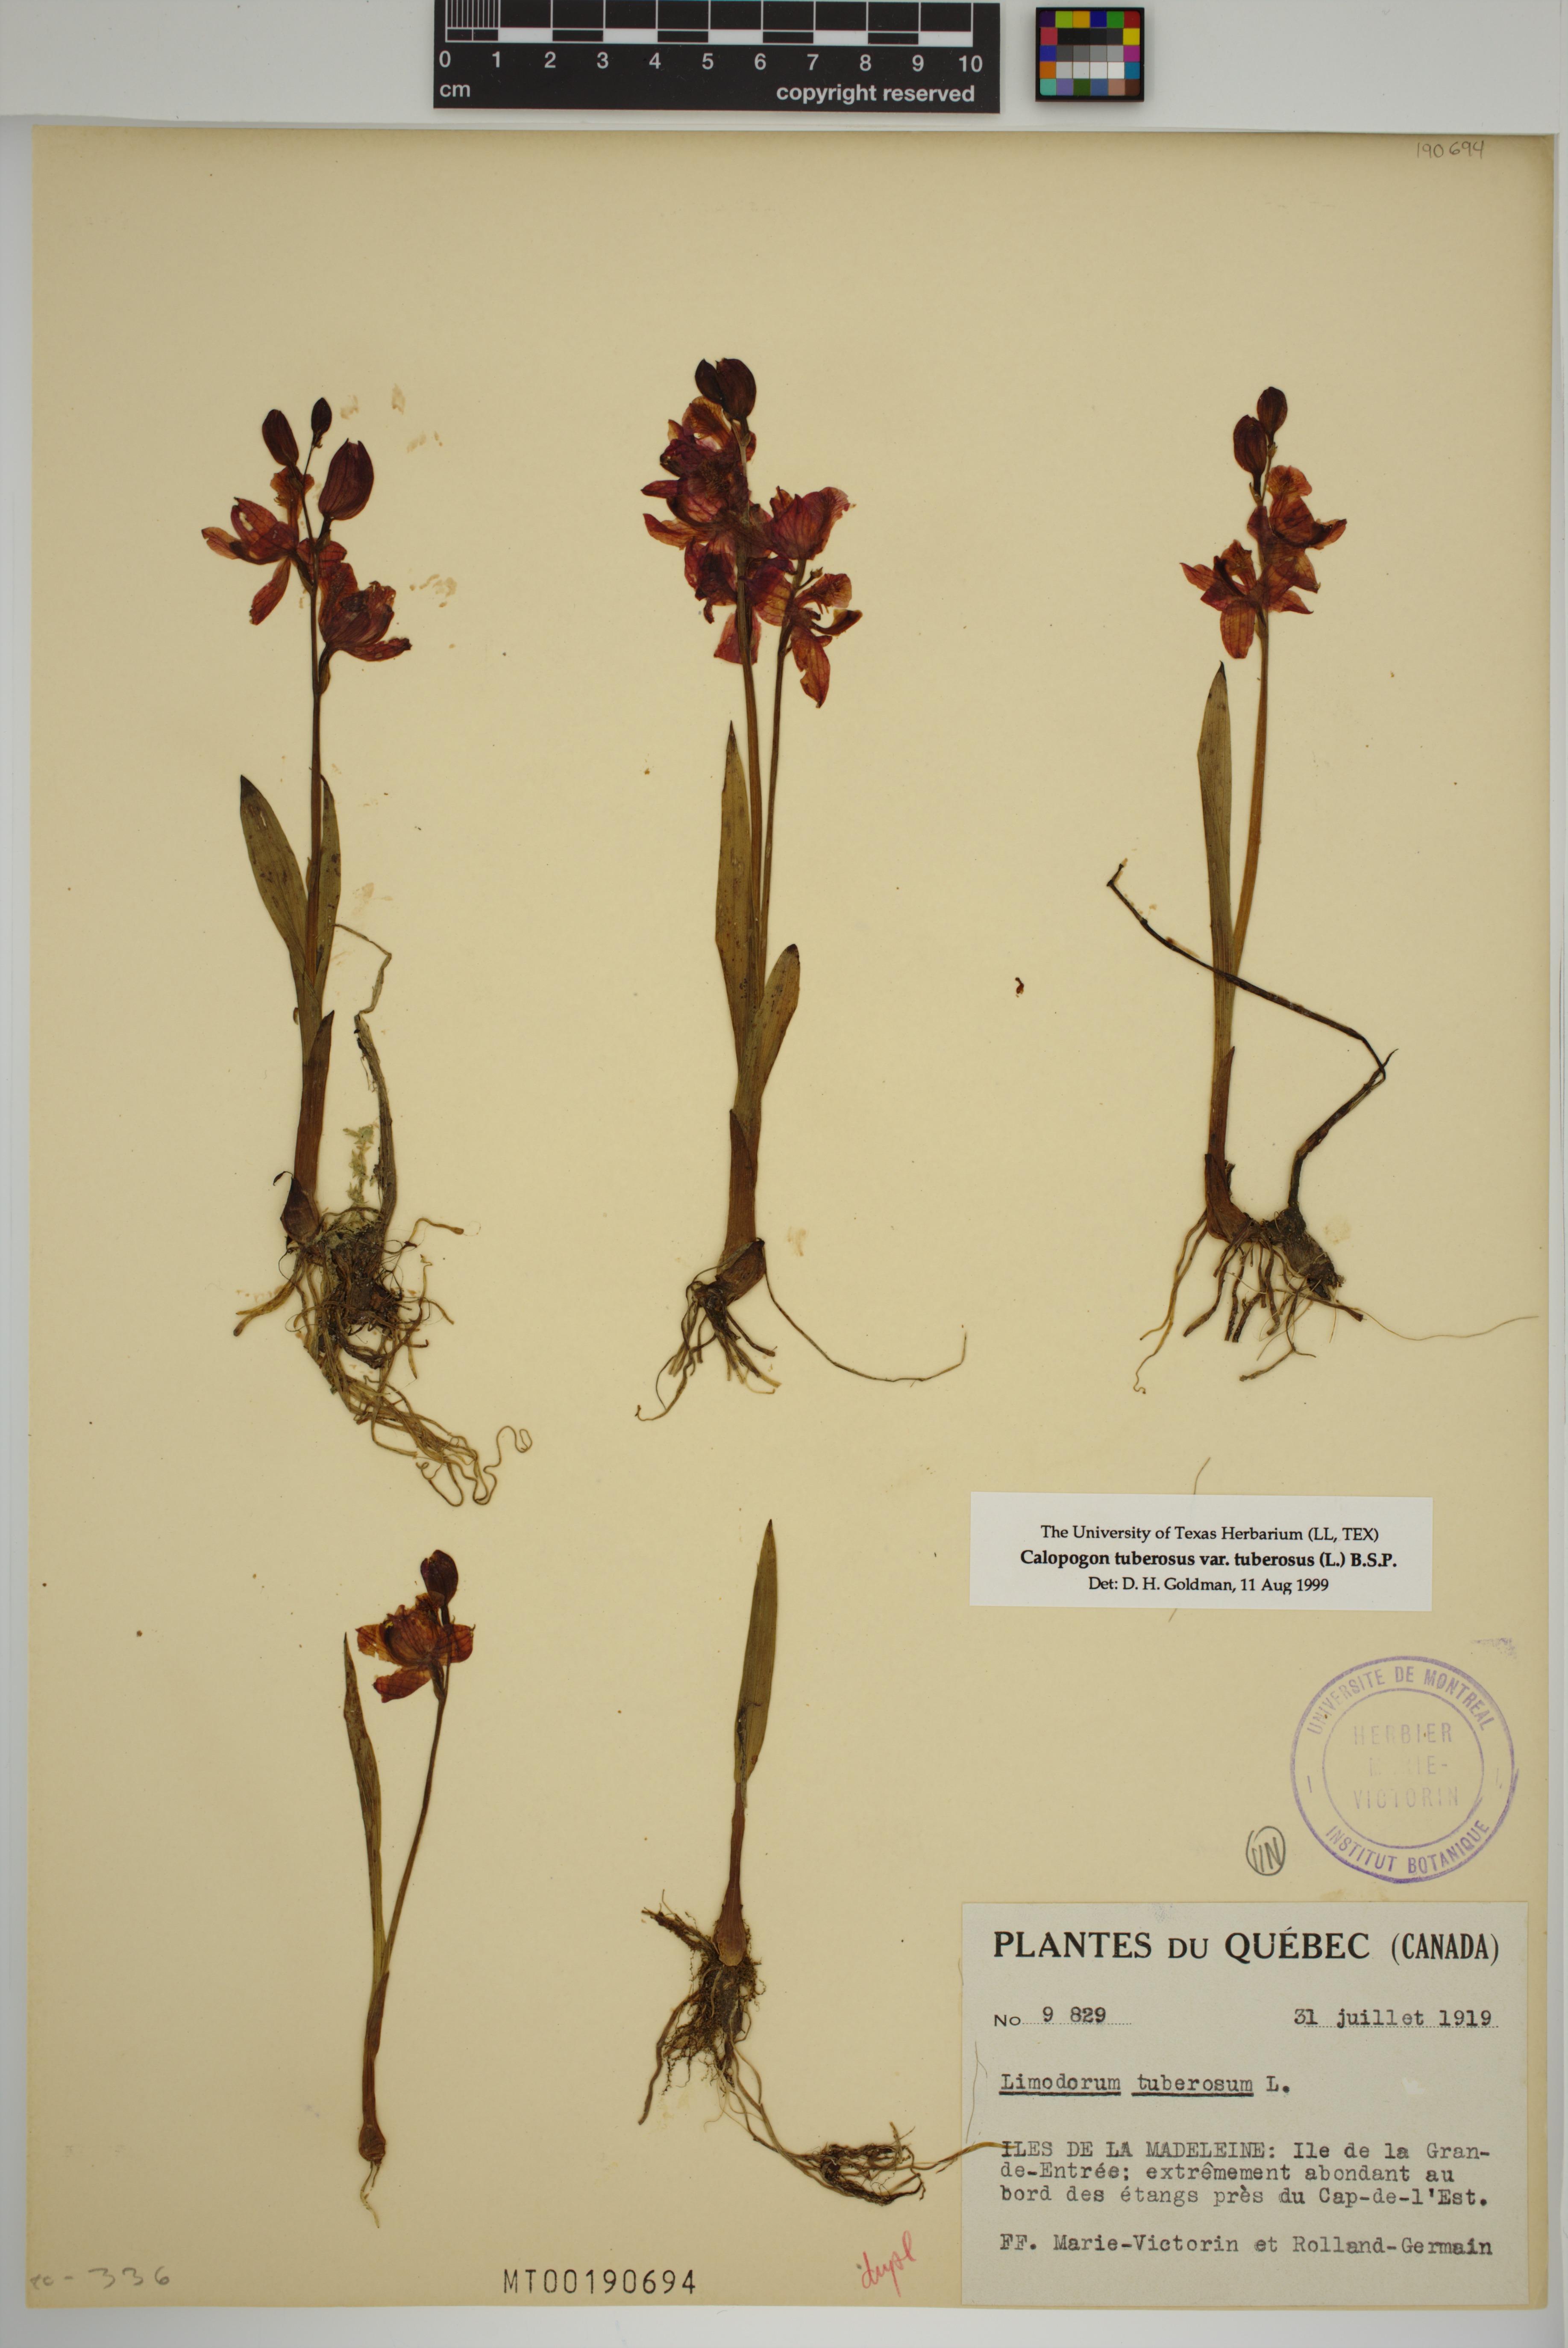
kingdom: Plantae
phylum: Tracheophyta
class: Liliopsida
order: Asparagales
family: Orchidaceae
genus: Calopogon
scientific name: Calopogon tuberosus
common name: Grass-pink
